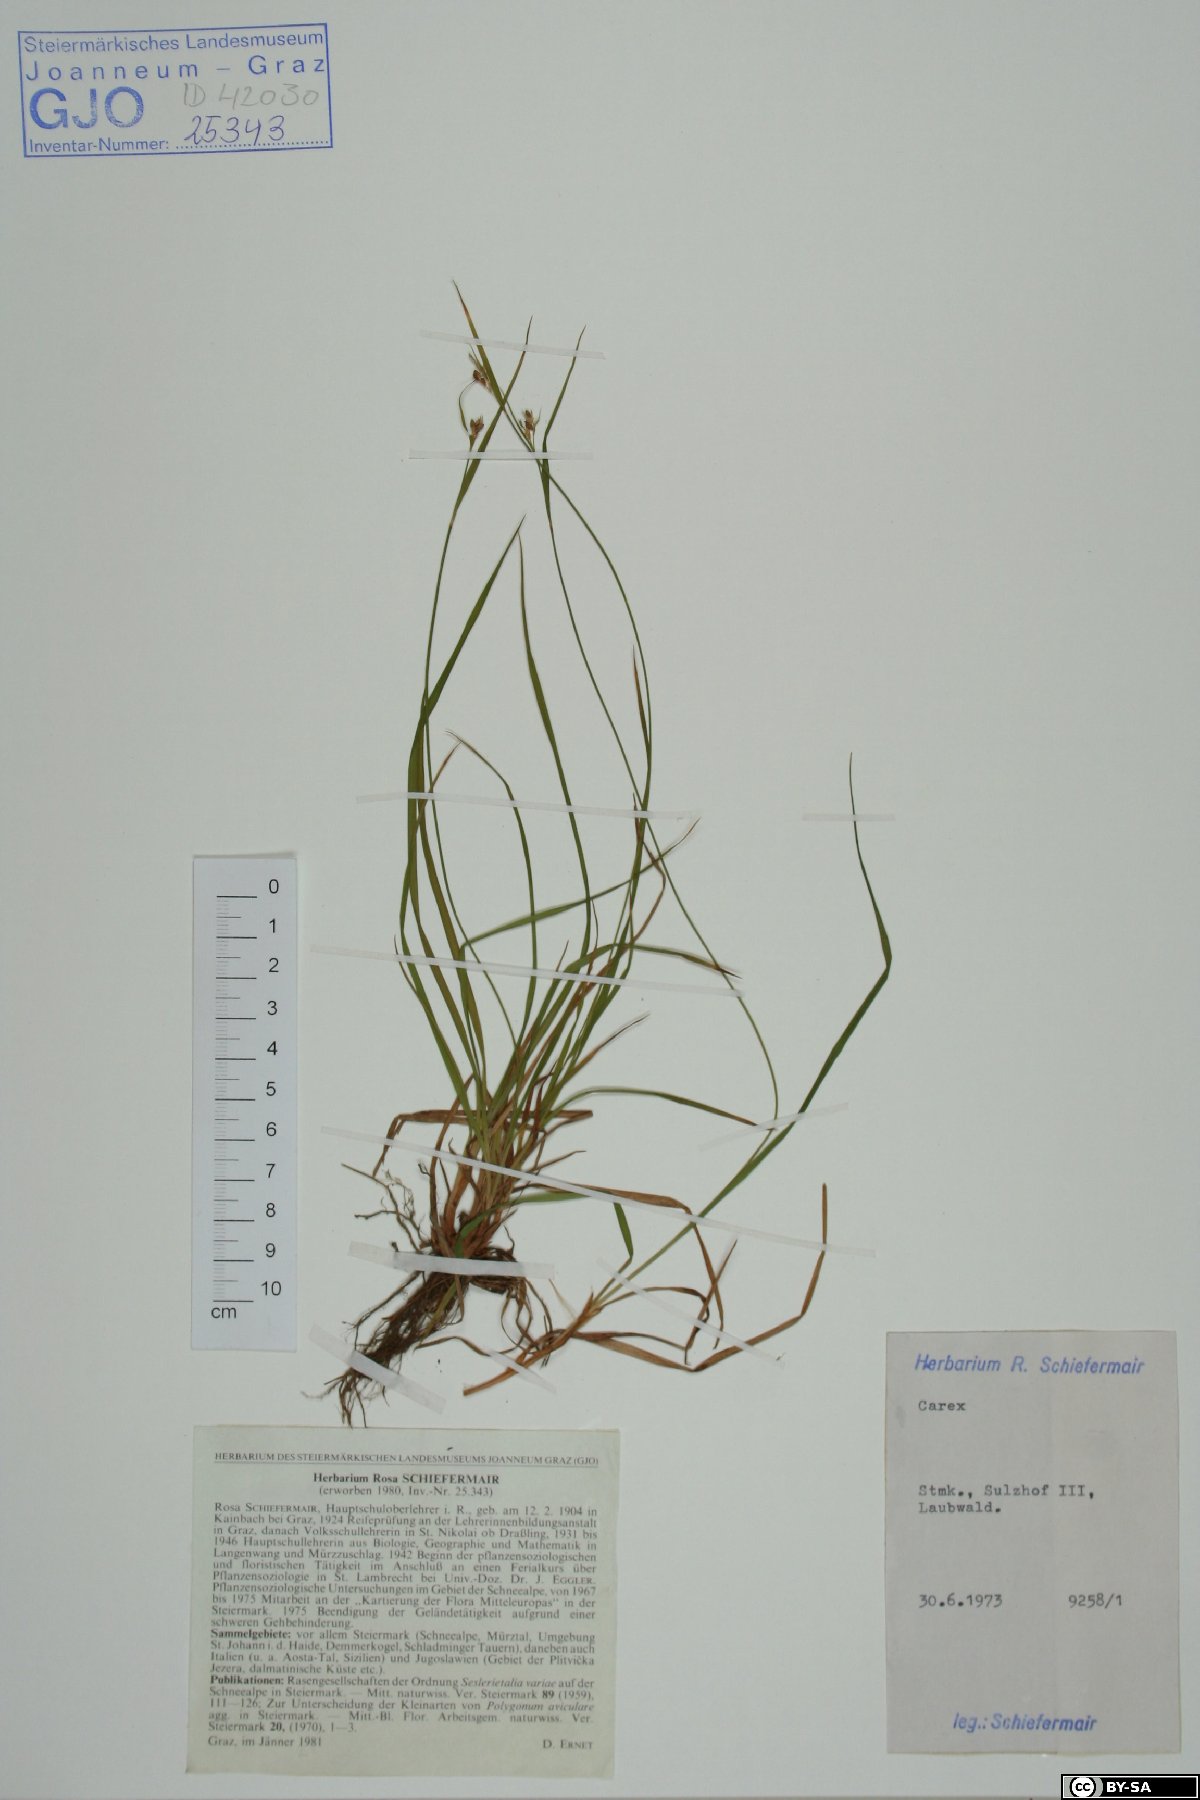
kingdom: Plantae
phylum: Tracheophyta
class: Liliopsida
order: Poales
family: Cyperaceae
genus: Carex
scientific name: Carex
